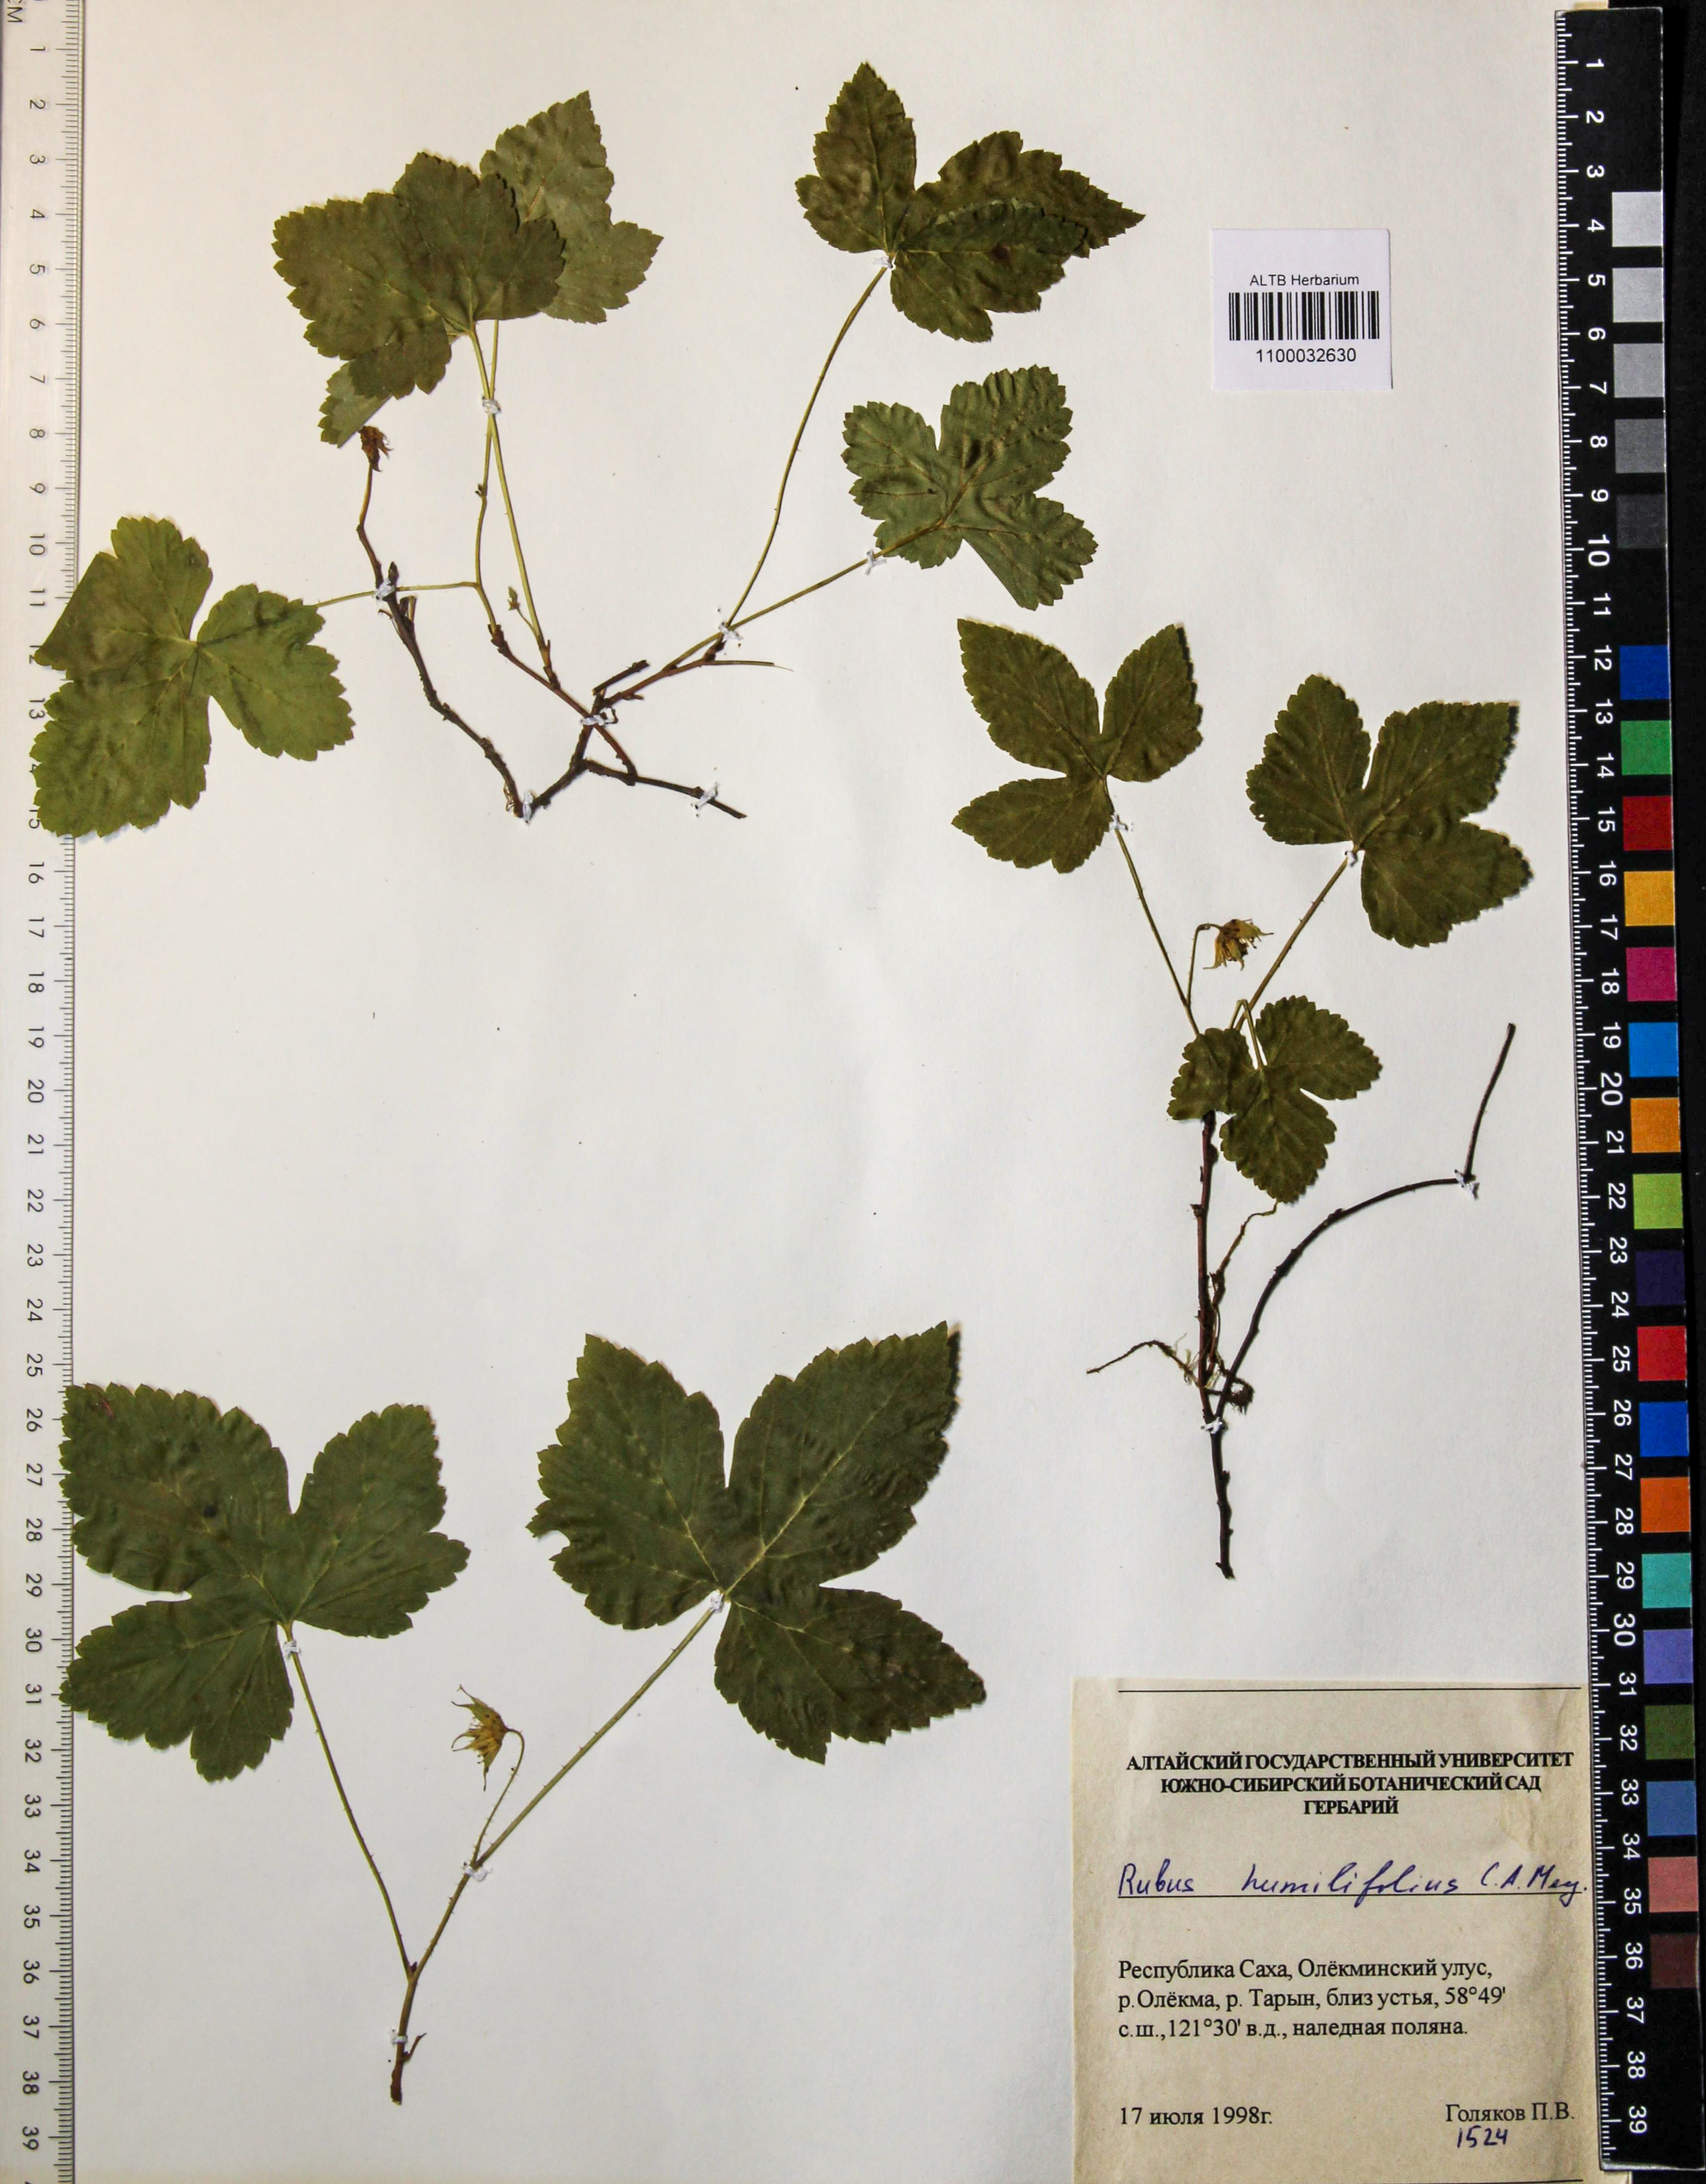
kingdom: Plantae
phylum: Tracheophyta
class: Magnoliopsida
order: Rosales
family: Rosaceae
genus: Rubus
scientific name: Rubus humilifolius
